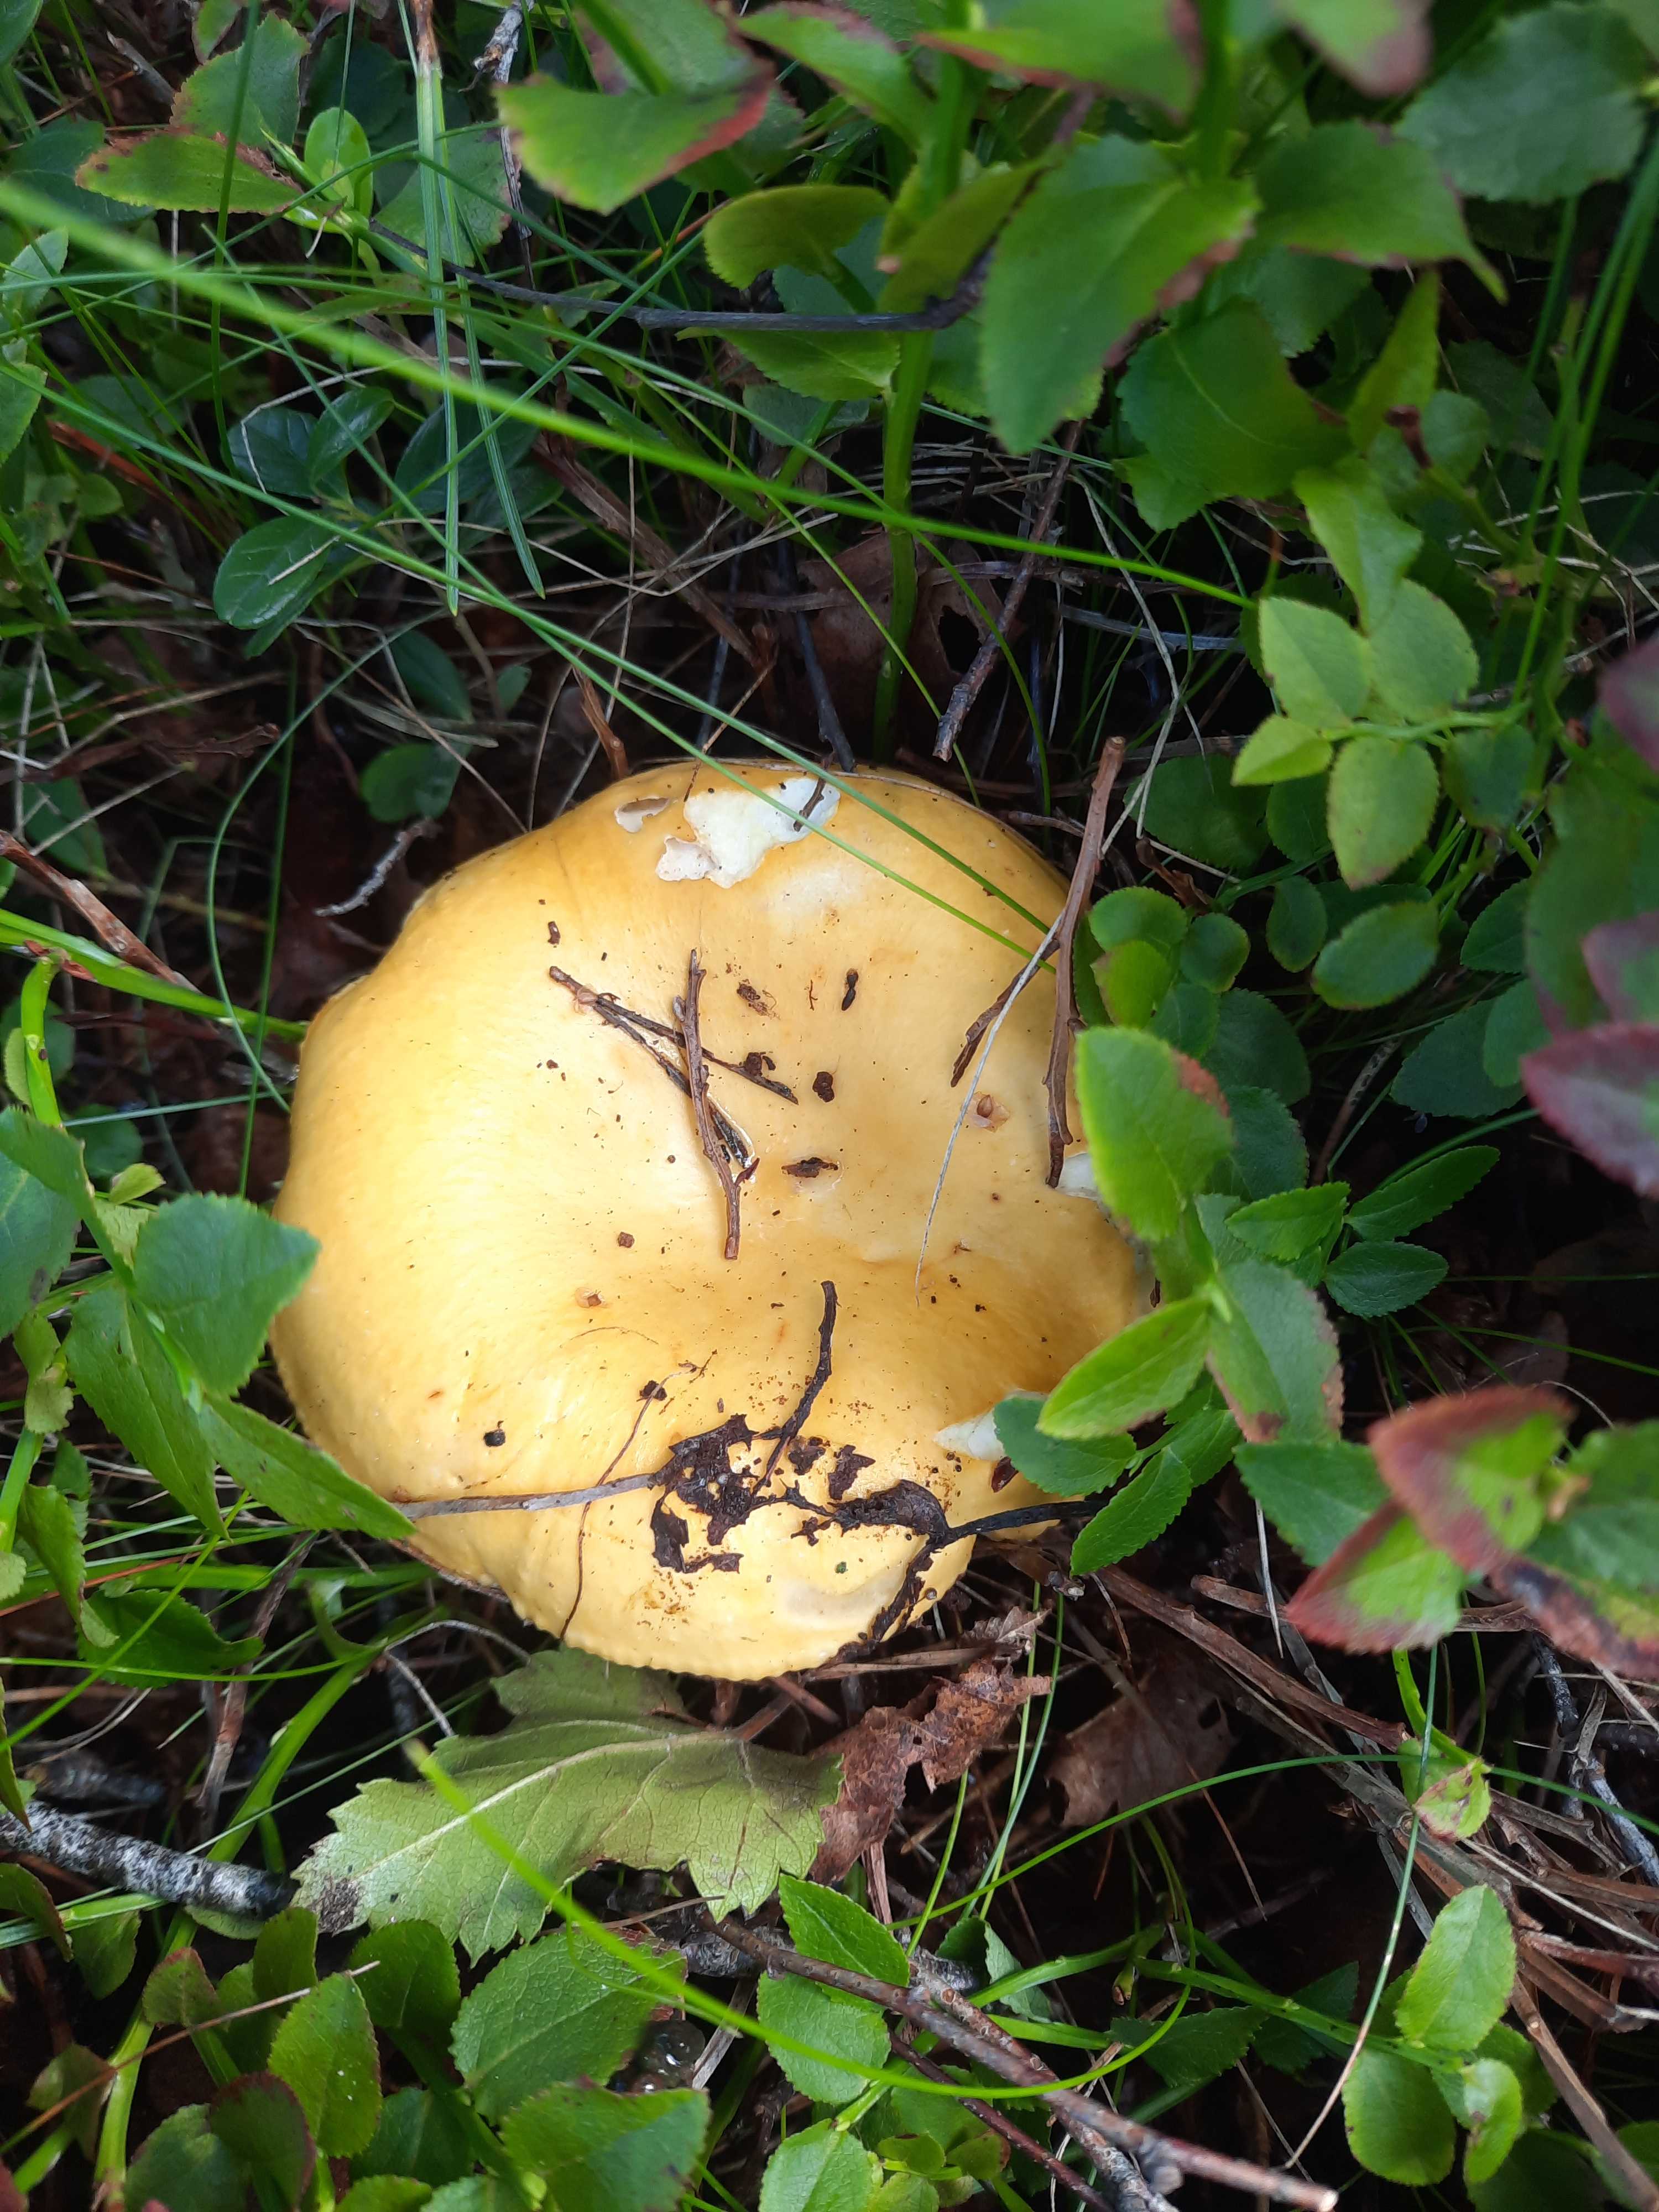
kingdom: Fungi
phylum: Basidiomycota
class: Agaricomycetes
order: Russulales
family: Russulaceae
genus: Russula
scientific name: Russula claroflava
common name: birke-skørhat
